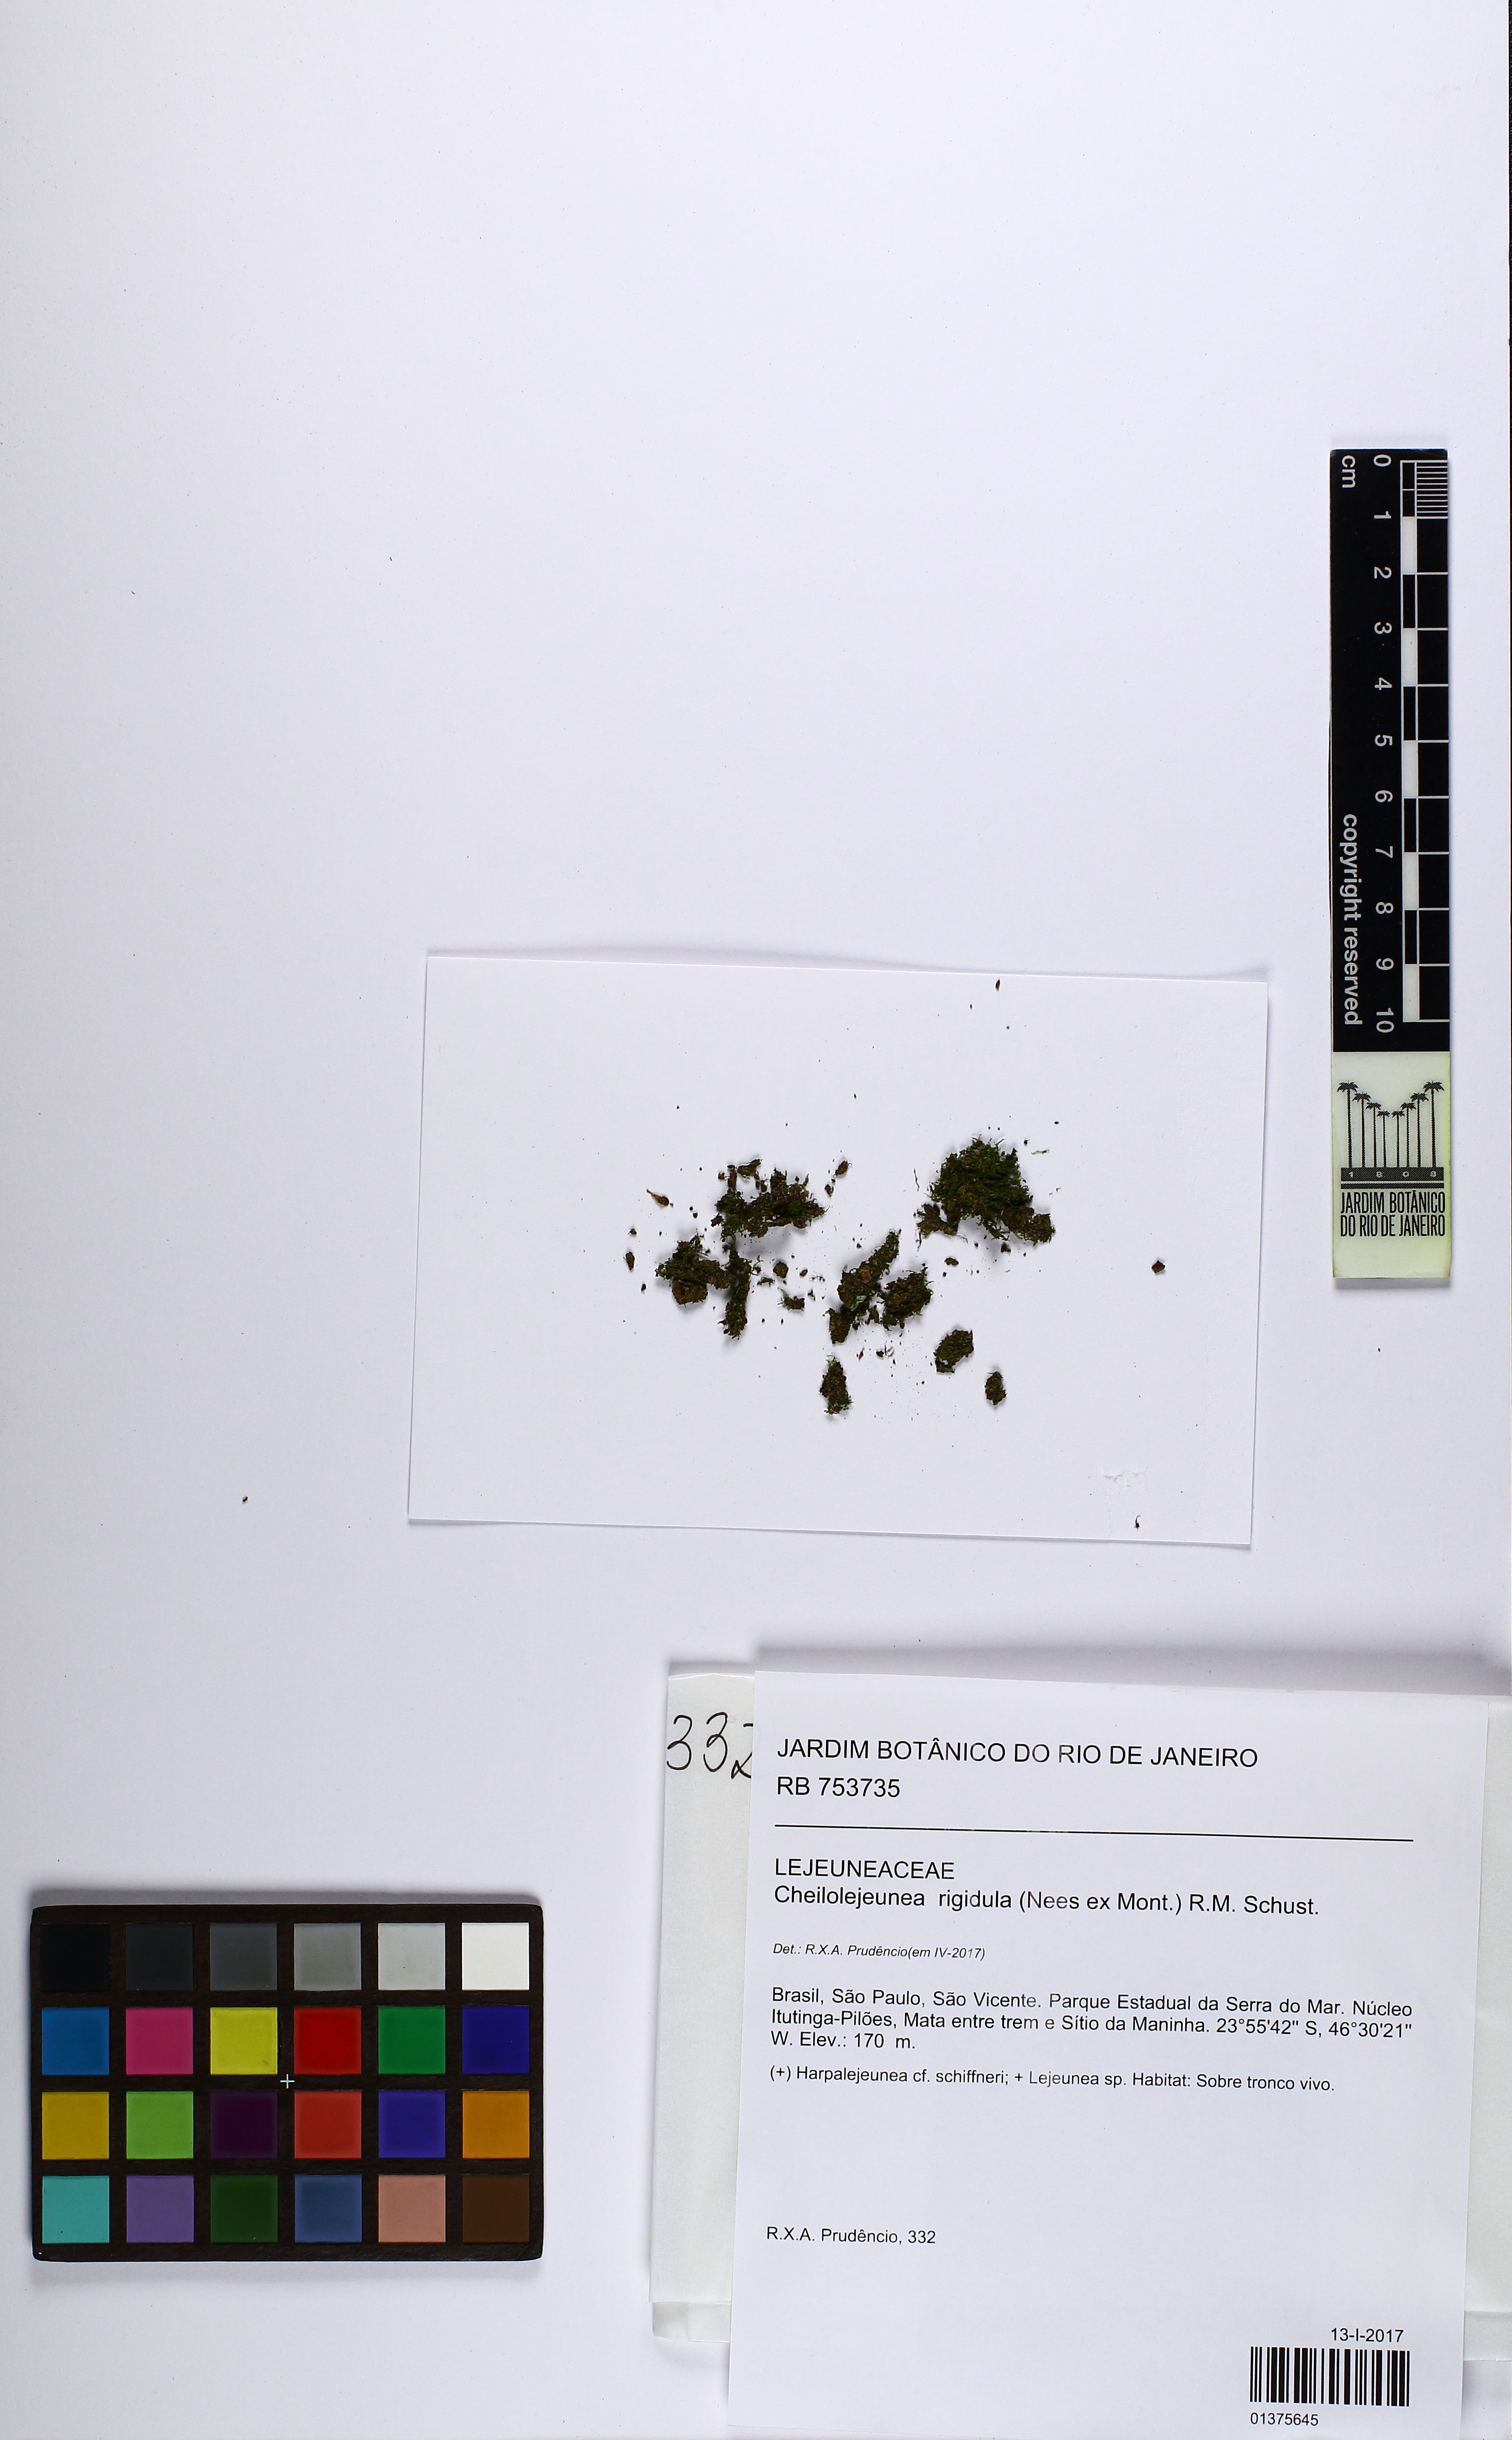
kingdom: Plantae
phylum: Marchantiophyta
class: Jungermanniopsida
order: Porellales
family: Lejeuneaceae
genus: Cheilolejeunea
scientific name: Cheilolejeunea rigidula
